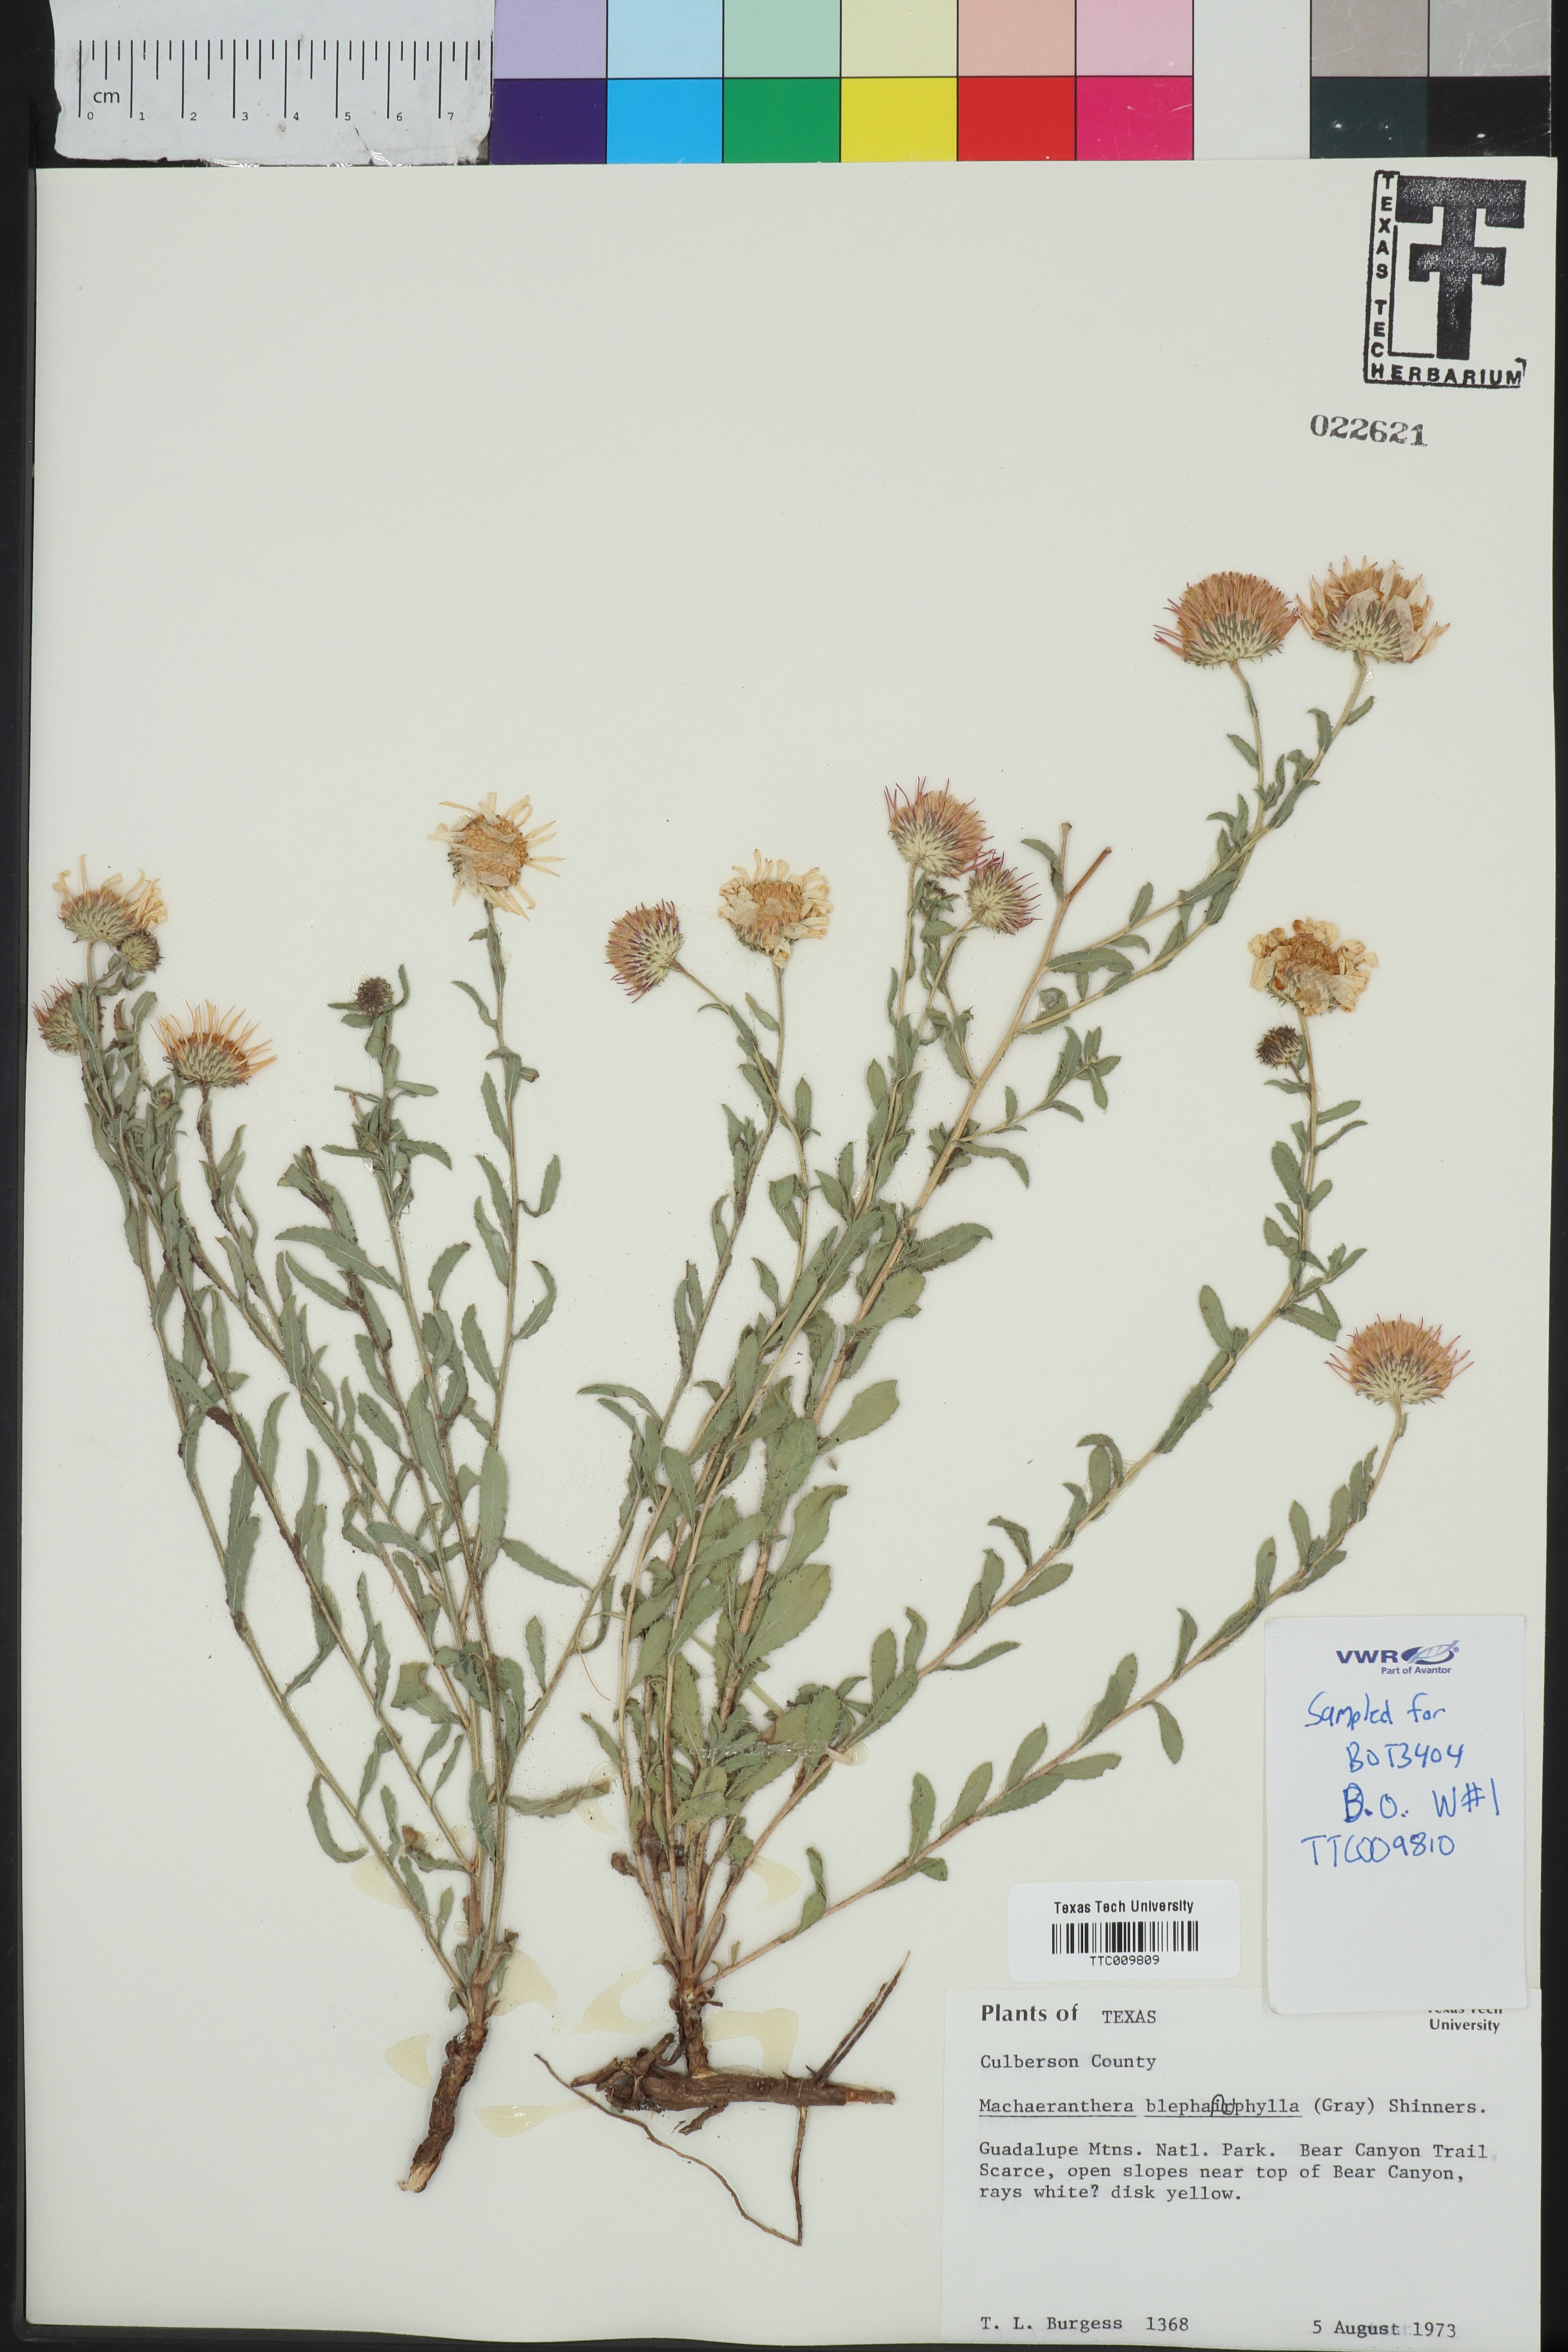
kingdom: Plantae
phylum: Tracheophyta
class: Magnoliopsida
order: Asterales
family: Asteraceae
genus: Xanthisma
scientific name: Xanthisma blephariphyllum
